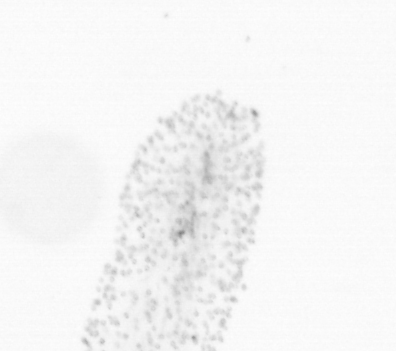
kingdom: Chromista
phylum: Ochrophyta
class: Bacillariophyceae
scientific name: Bacillariophyceae
